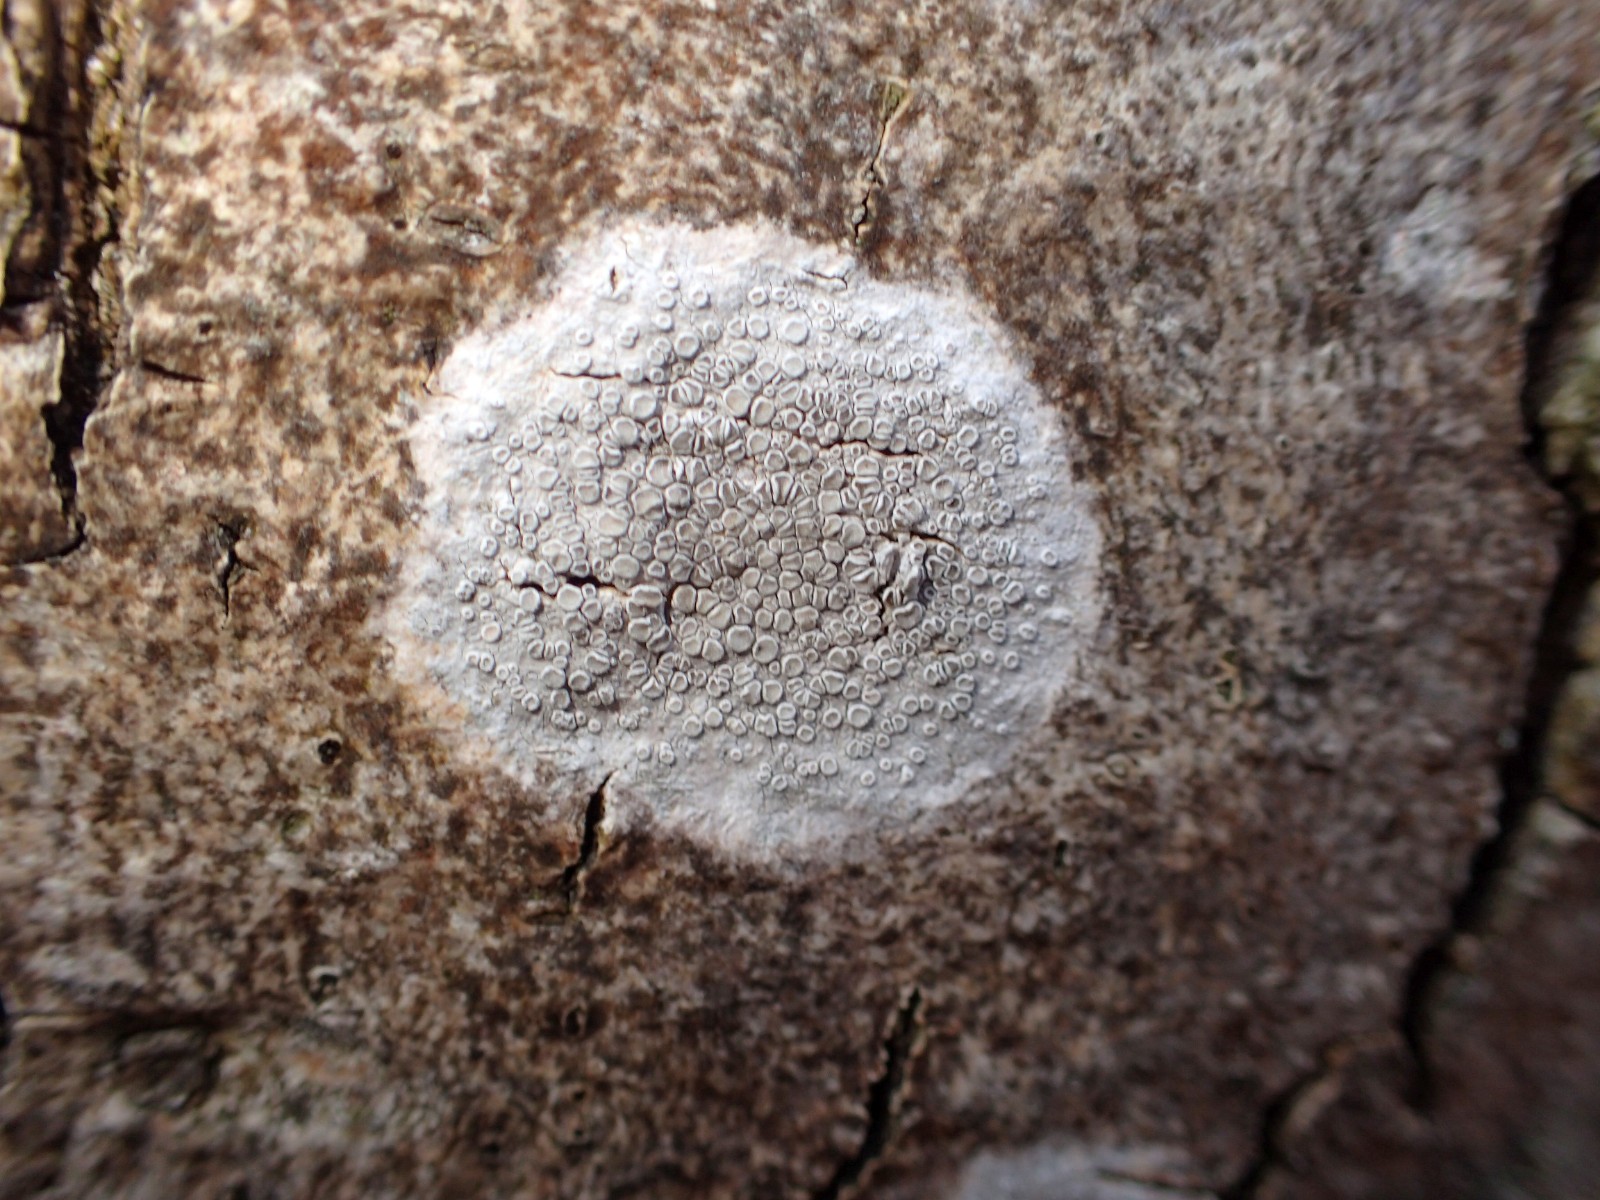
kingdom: Fungi
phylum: Ascomycota
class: Lecanoromycetes
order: Lecanorales
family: Lecanoraceae
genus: Glaucomaria
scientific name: Glaucomaria carpinea
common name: hviddugget kantskivelav
